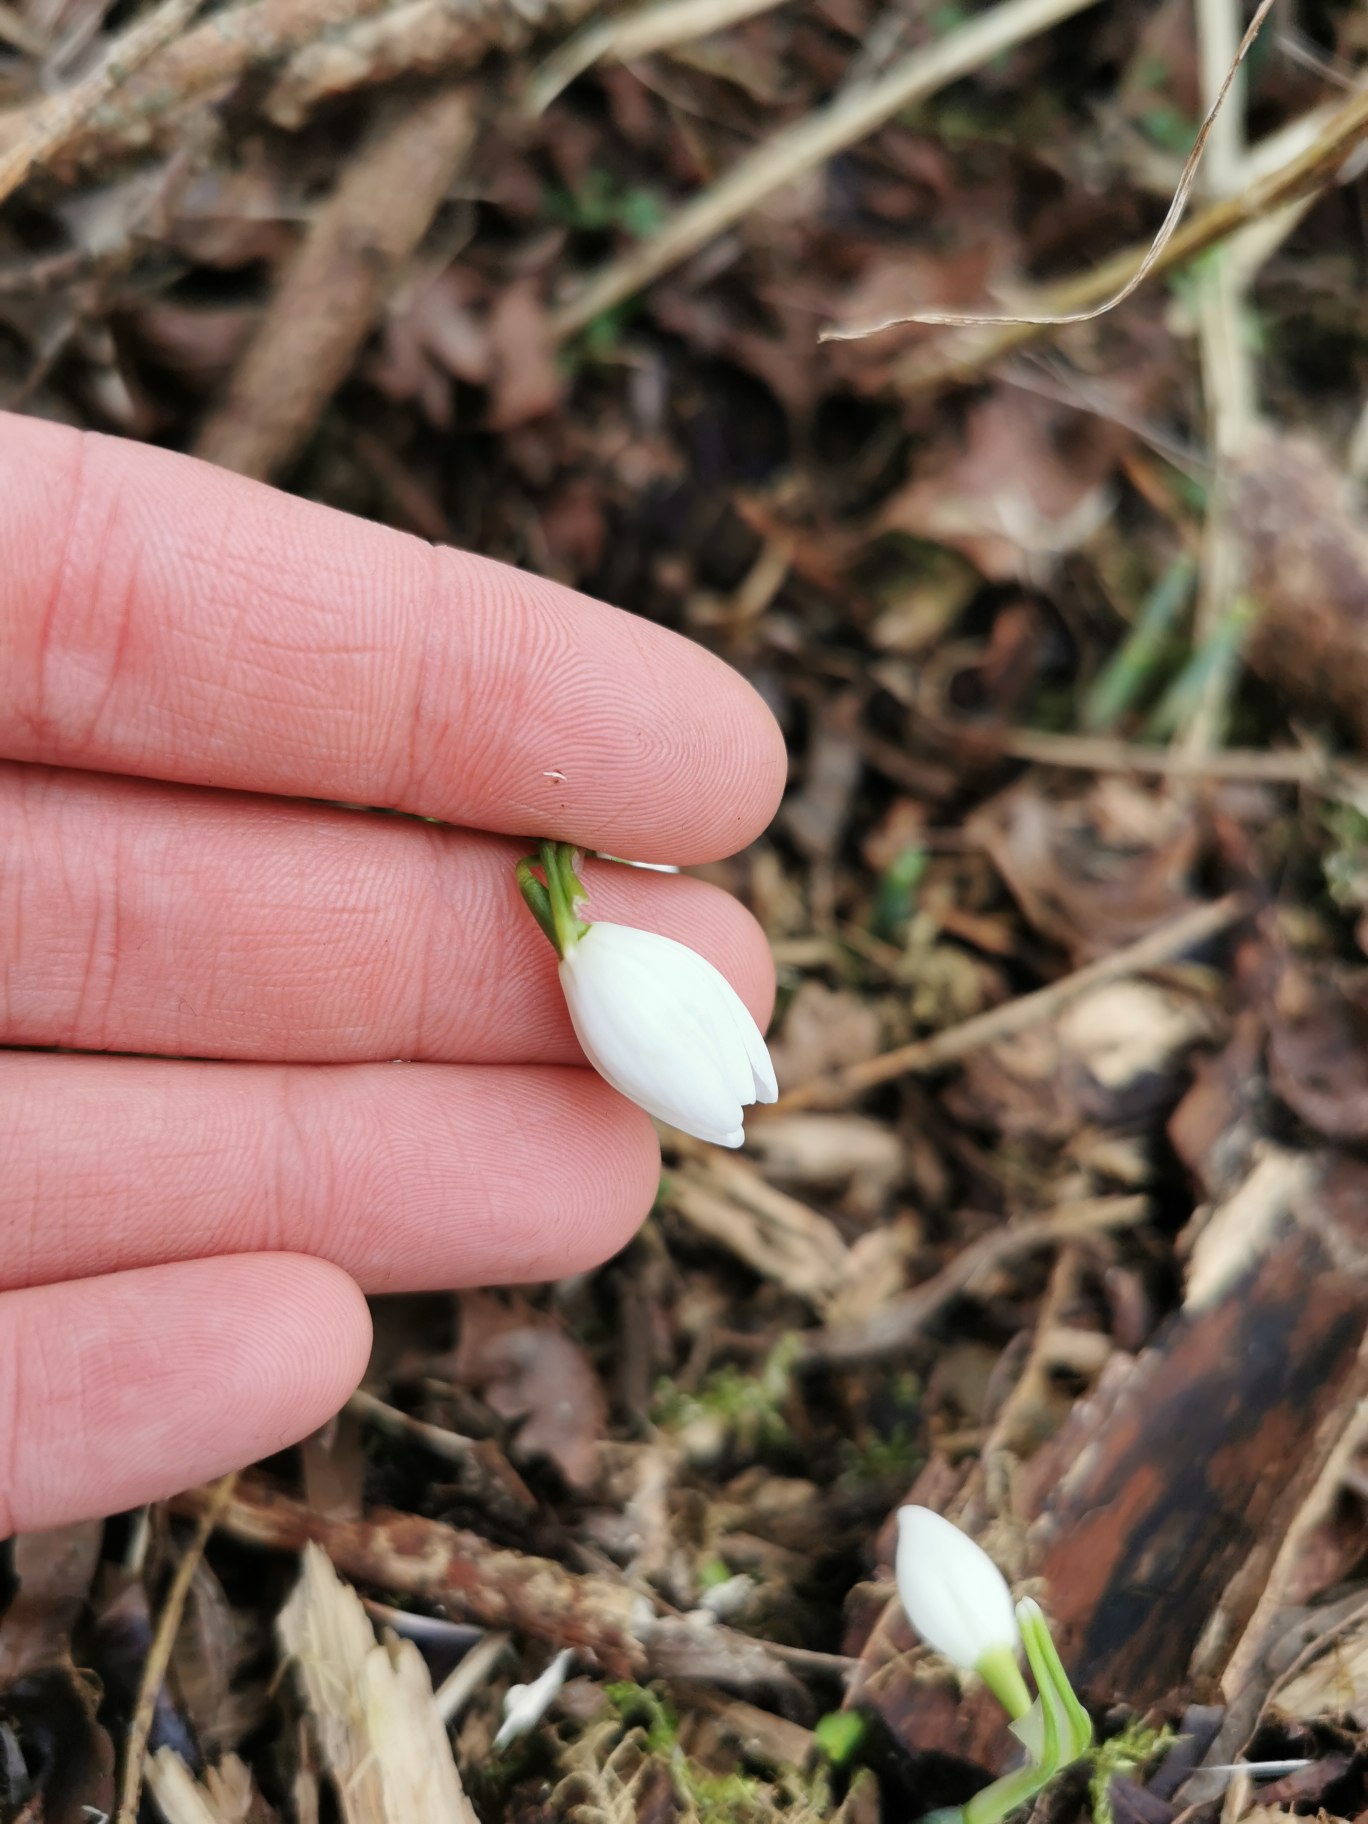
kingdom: Plantae
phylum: Tracheophyta
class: Liliopsida
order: Asparagales
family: Amaryllidaceae
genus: Galanthus
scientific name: Galanthus nivalis
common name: Vintergæk
